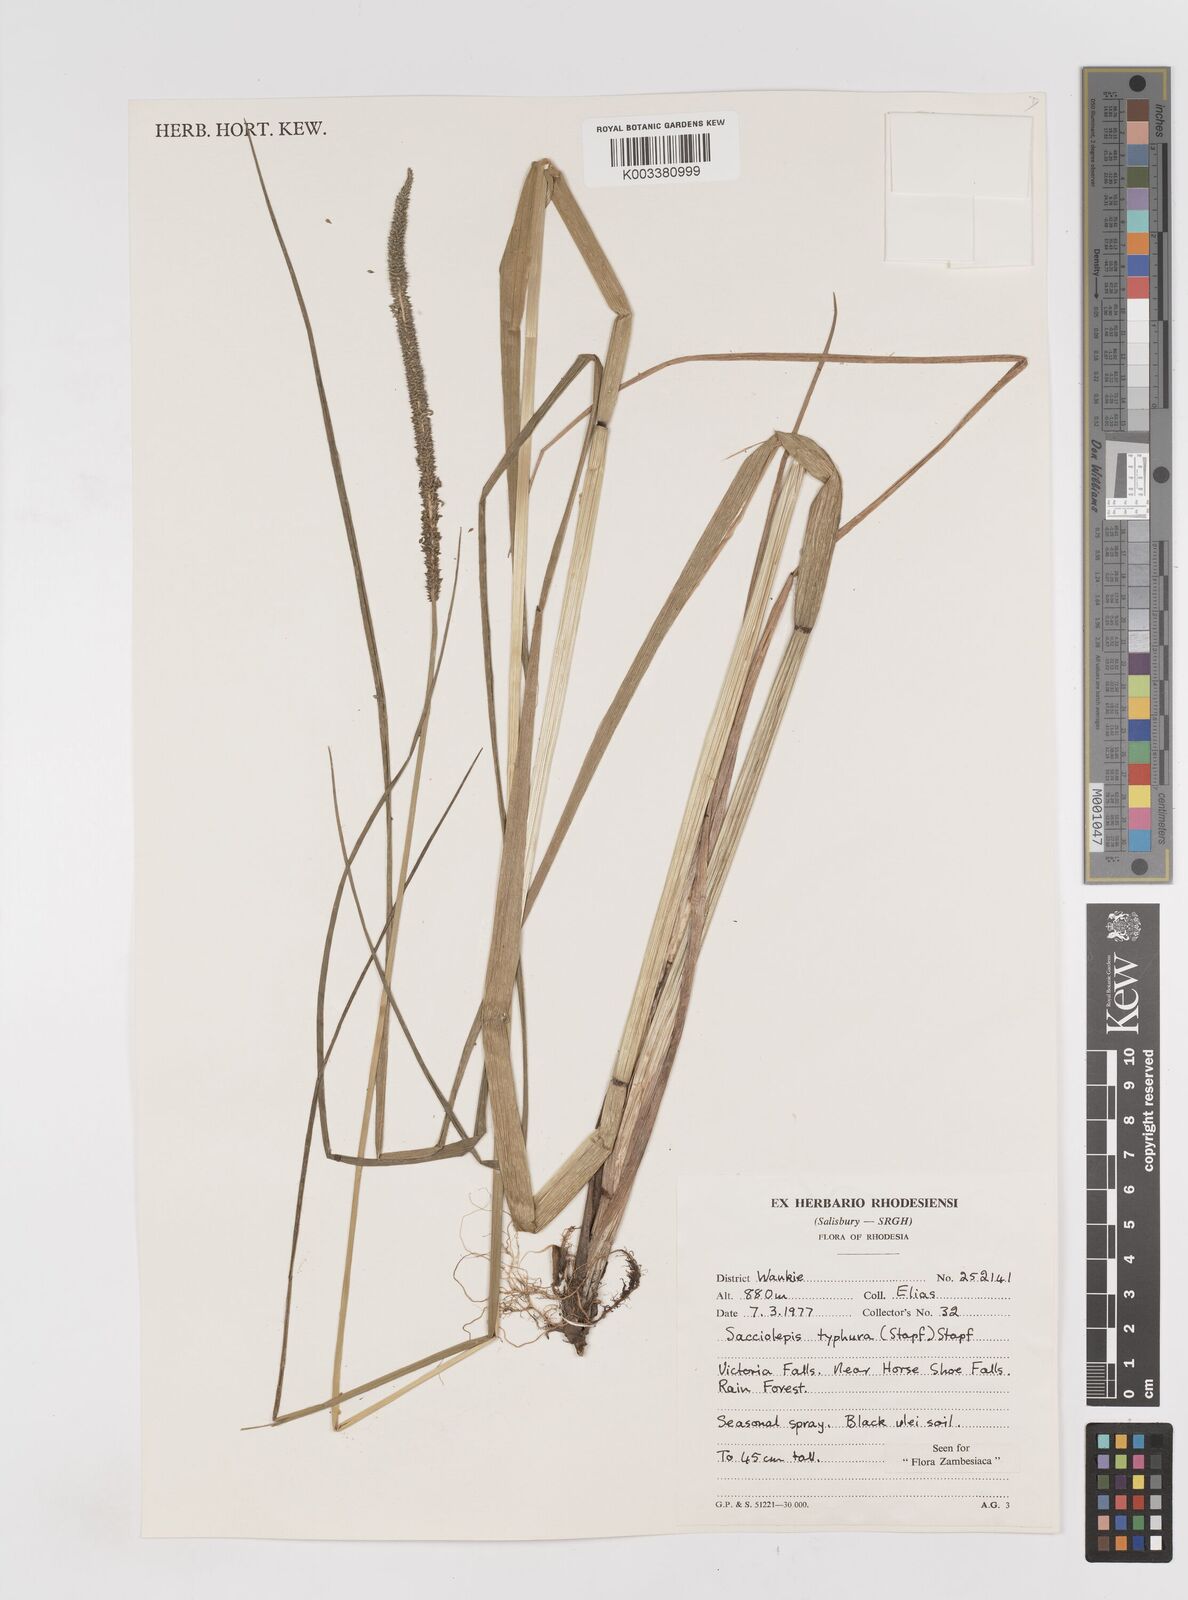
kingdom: Plantae
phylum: Tracheophyta
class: Liliopsida
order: Poales
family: Poaceae
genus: Sacciolepis
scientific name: Sacciolepis typhura
